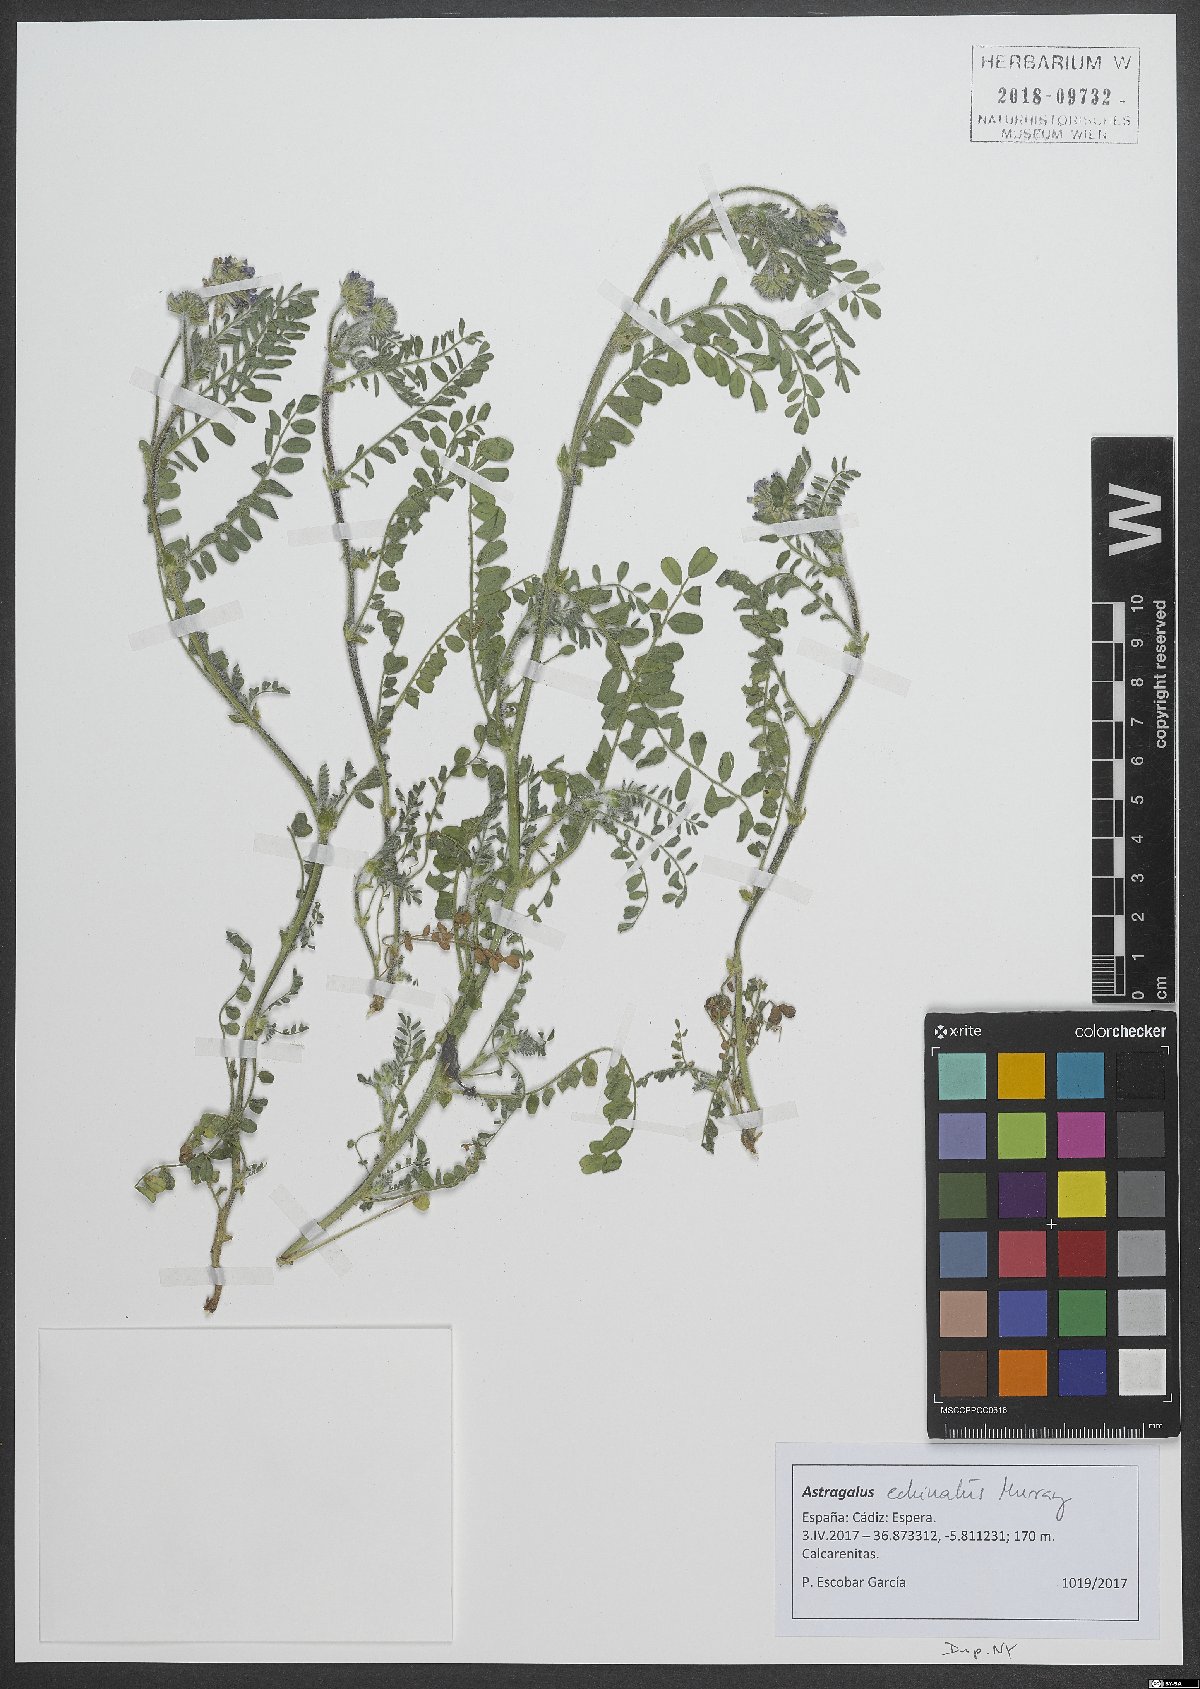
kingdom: Plantae
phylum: Tracheophyta
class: Magnoliopsida
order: Fabales
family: Fabaceae
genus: Astragalus
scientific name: Astragalus echinatus
